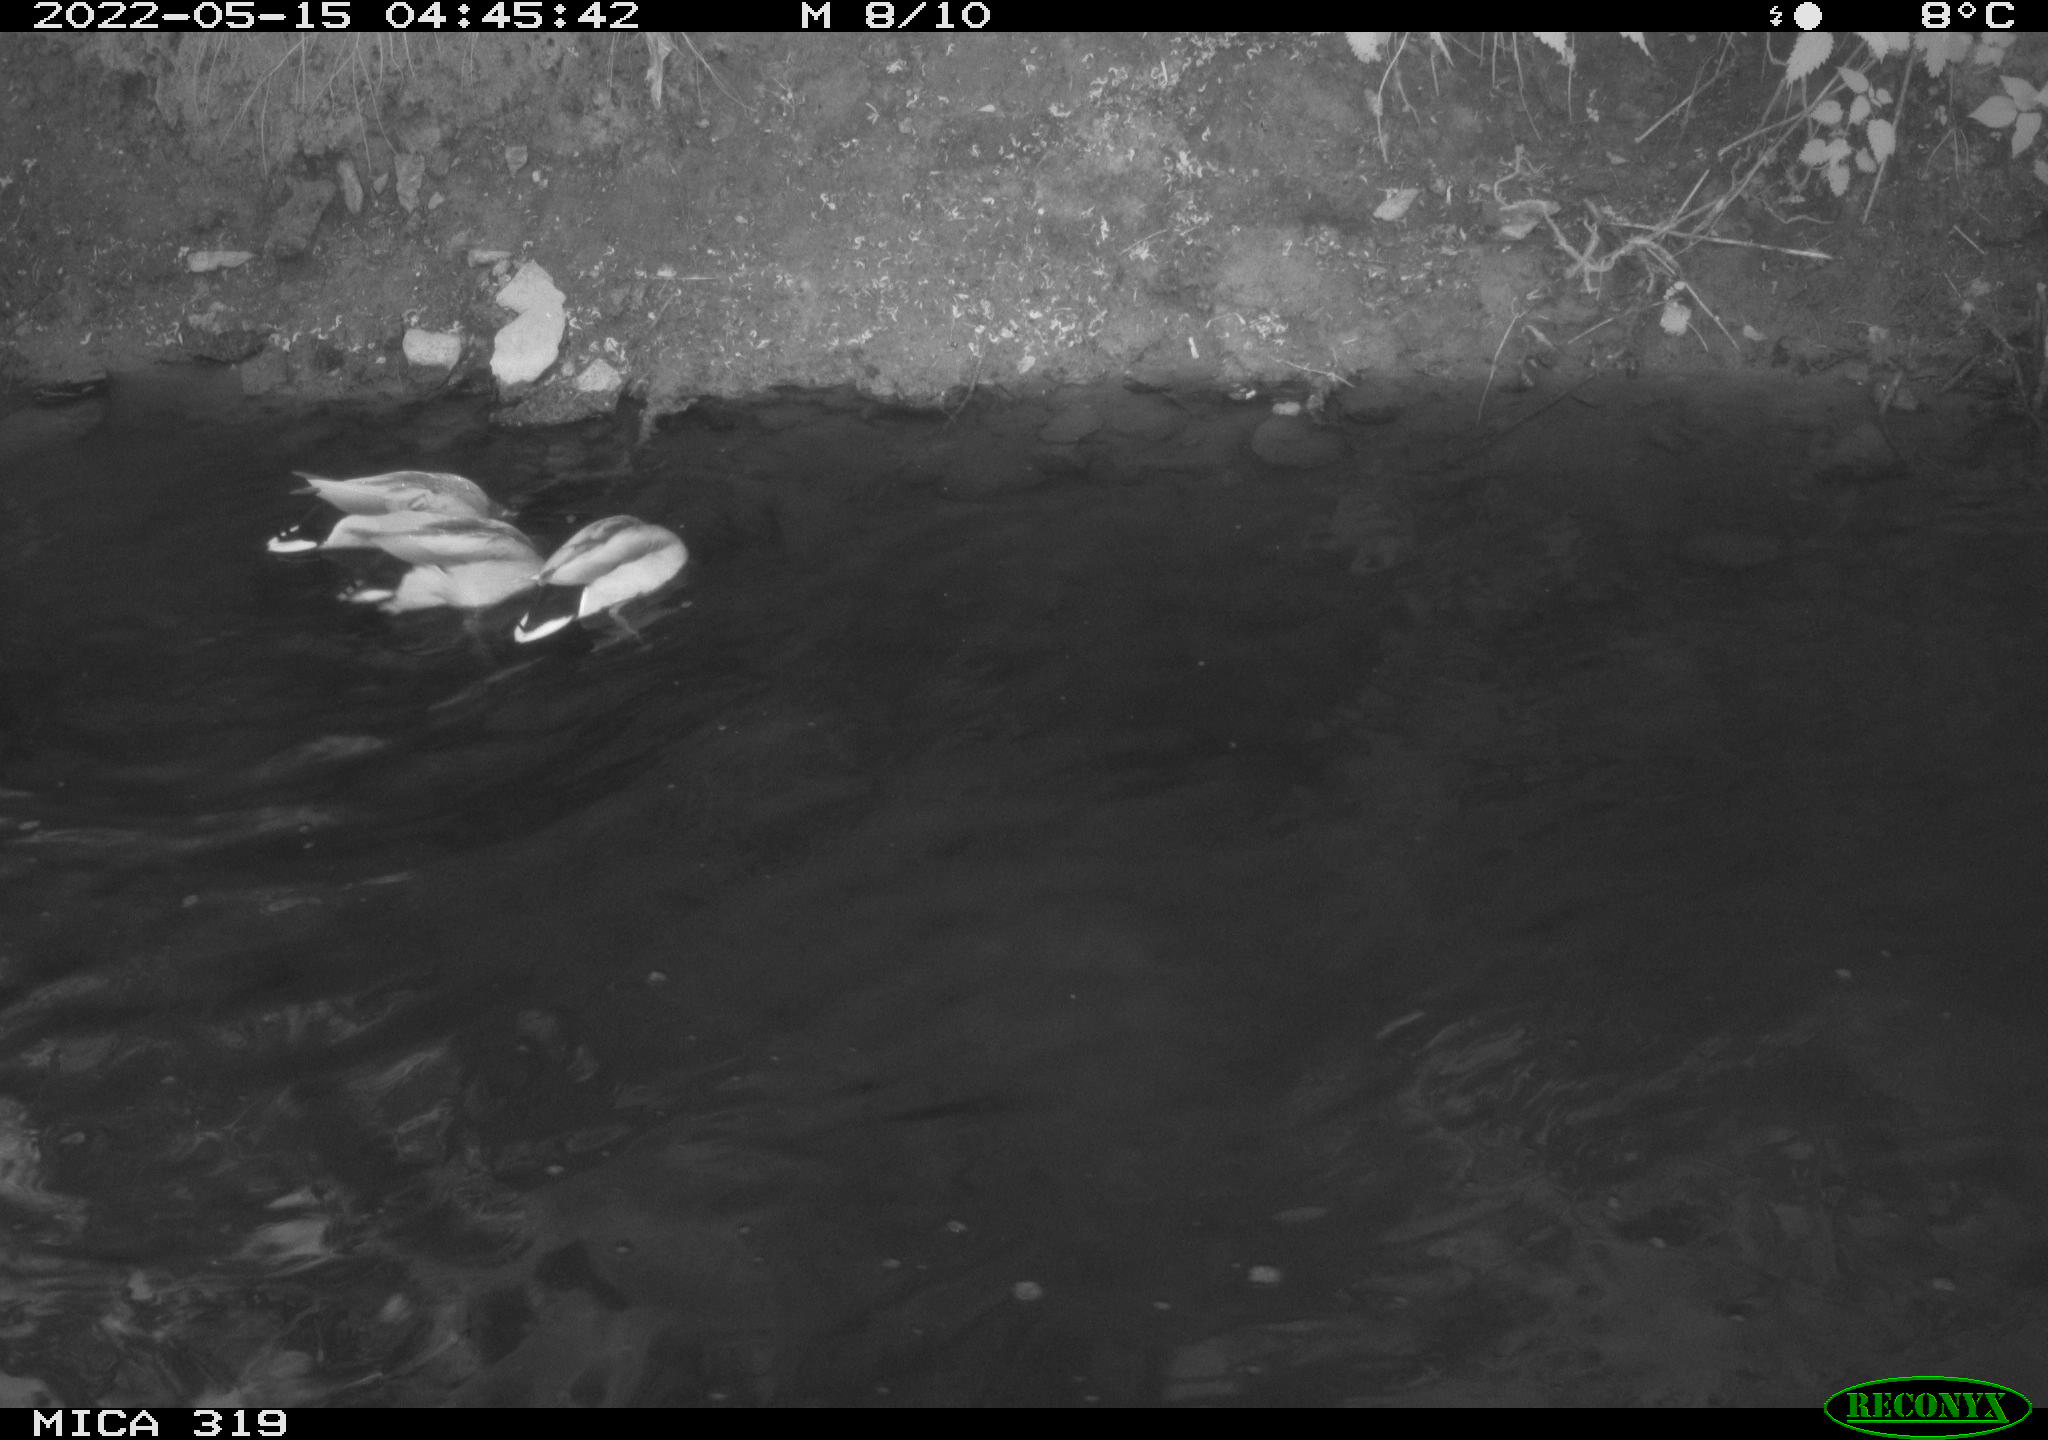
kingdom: Animalia
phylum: Chordata
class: Aves
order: Anseriformes
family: Anatidae
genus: Anas
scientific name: Anas
